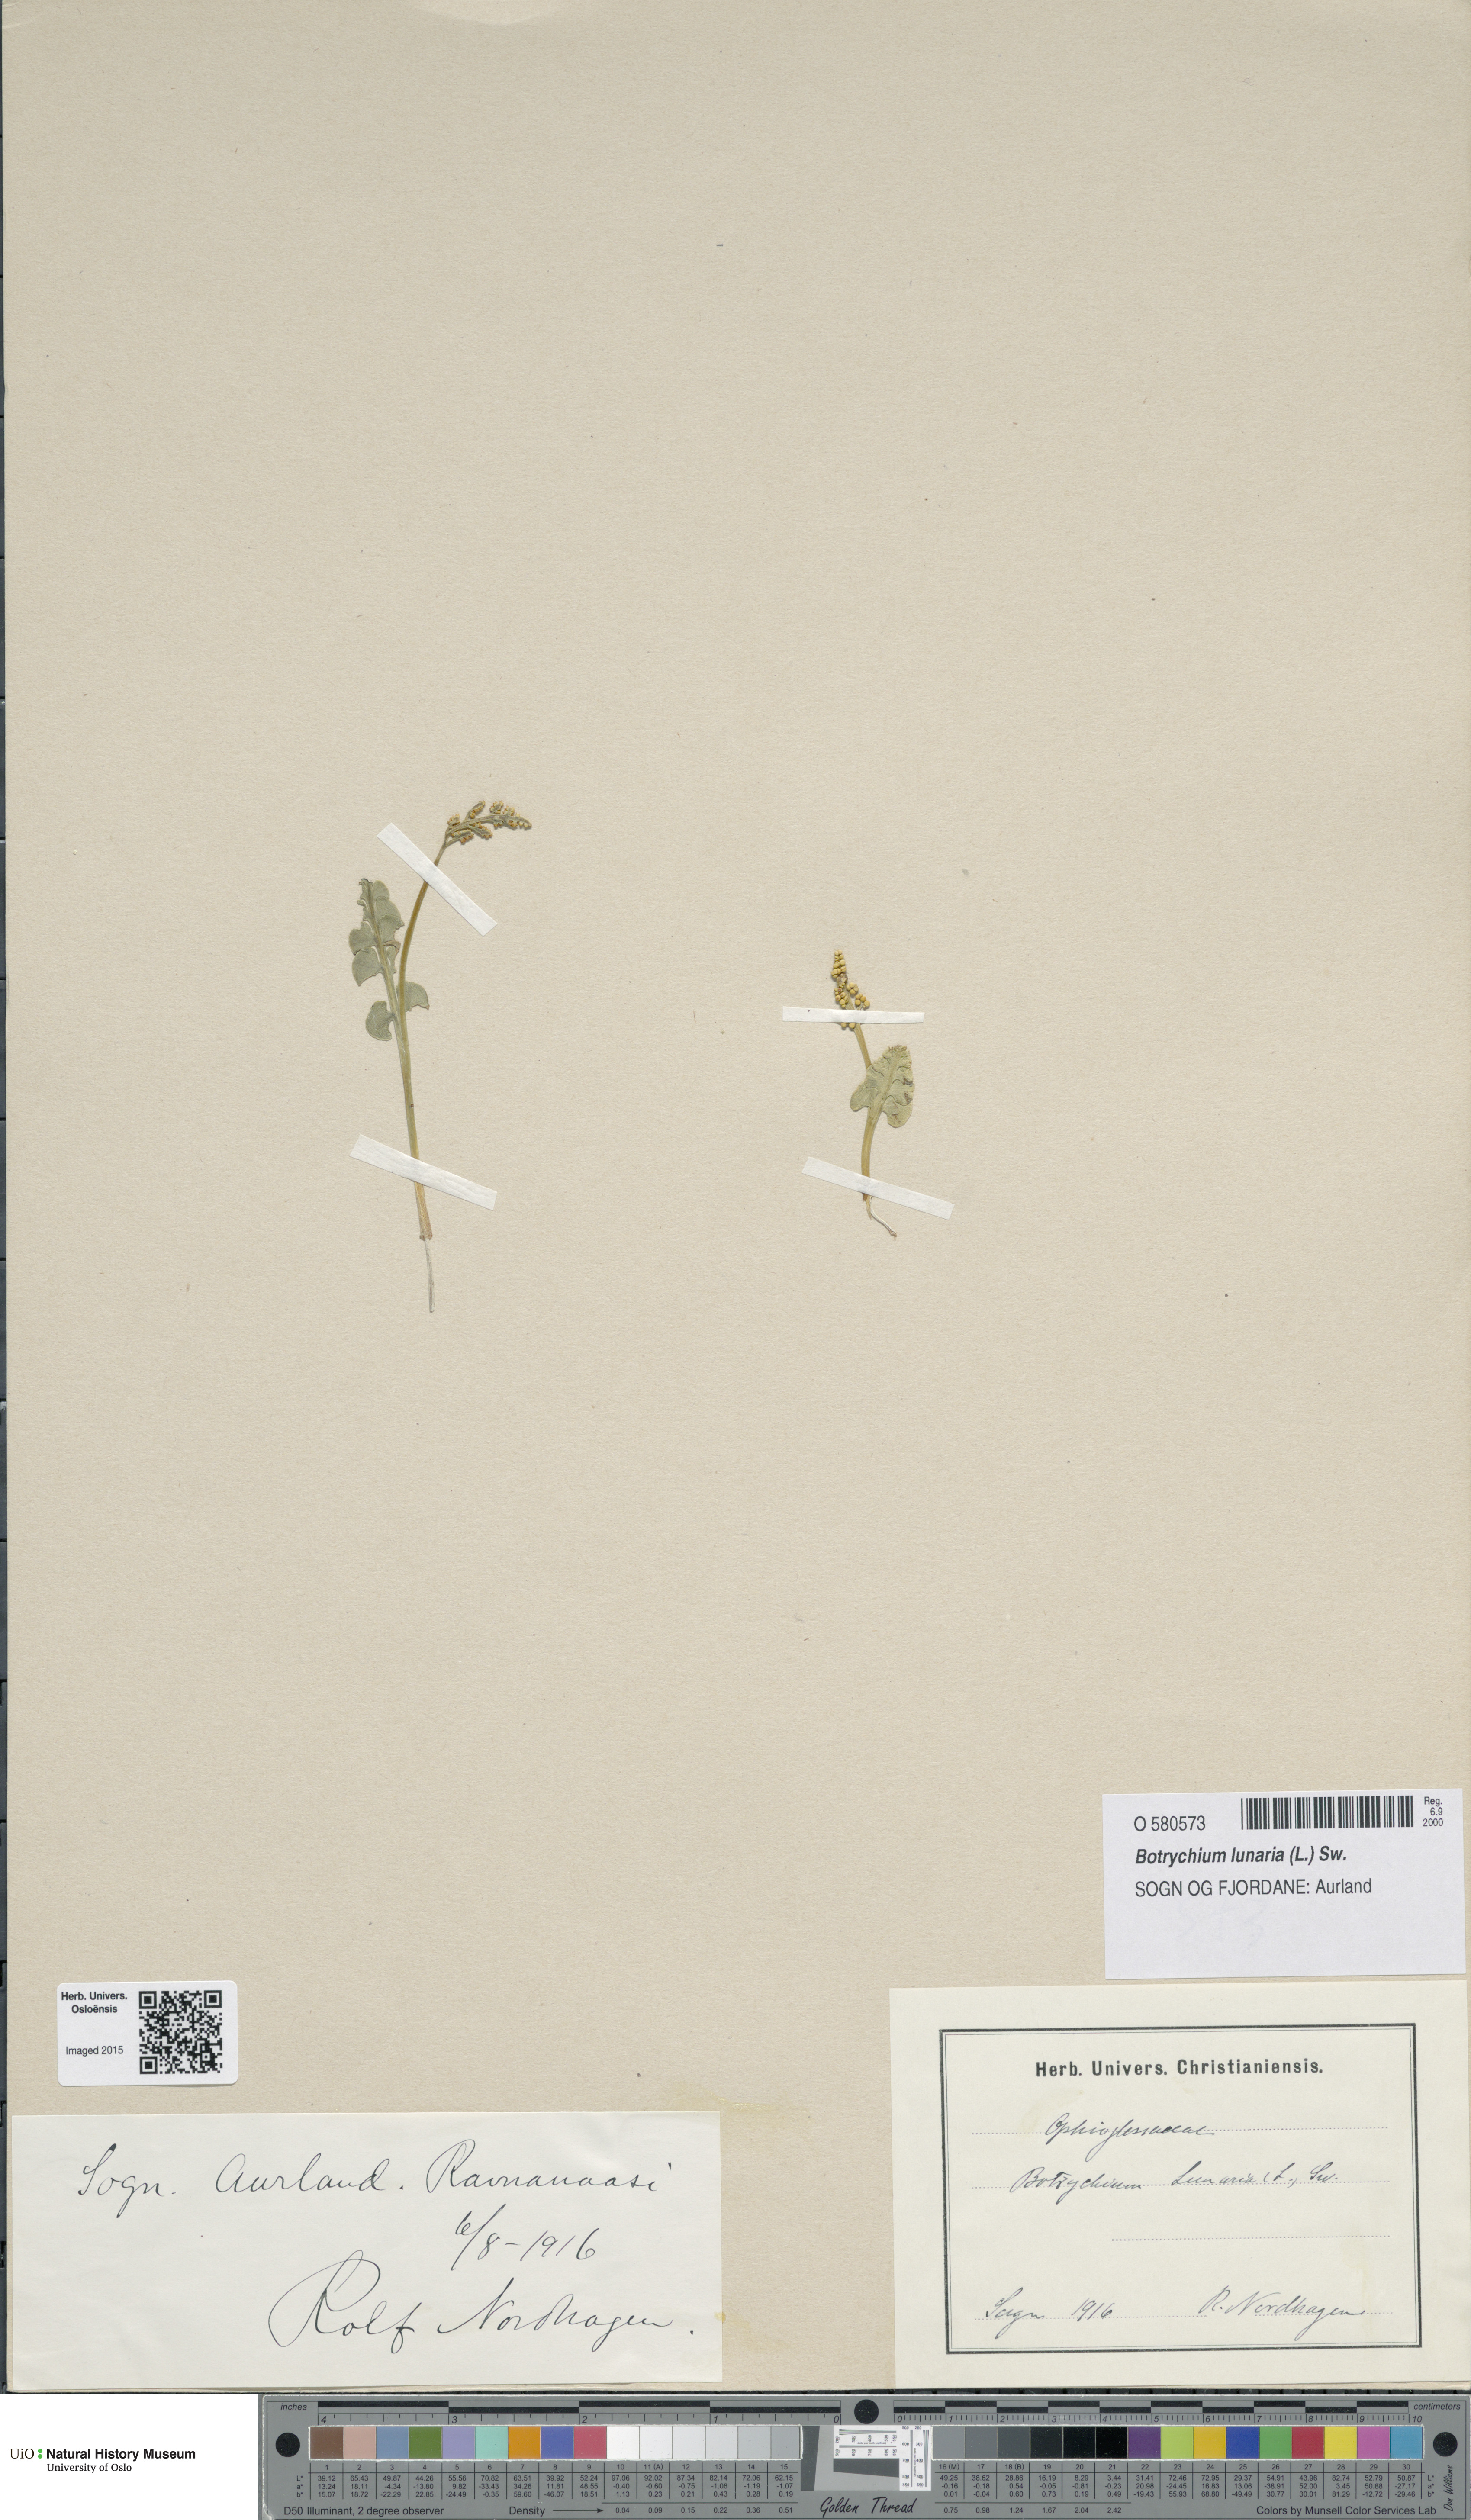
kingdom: Plantae
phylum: Tracheophyta
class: Polypodiopsida
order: Ophioglossales
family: Ophioglossaceae
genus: Botrychium
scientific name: Botrychium lunaria
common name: Moonwort
